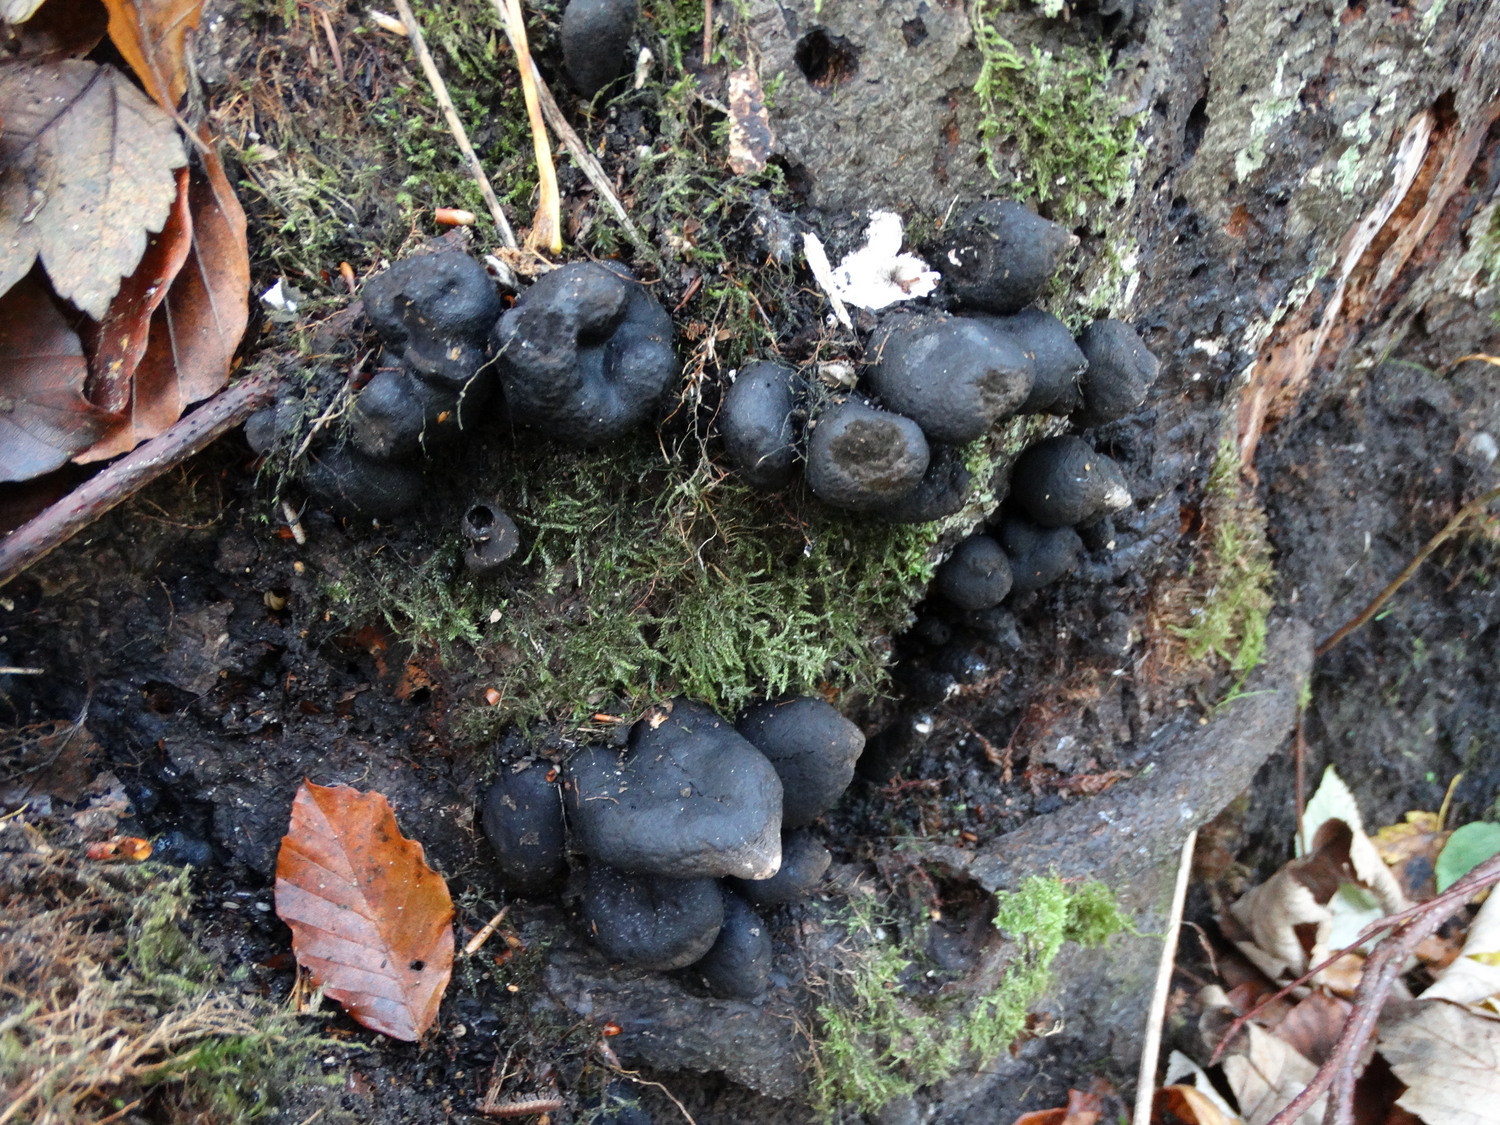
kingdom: Fungi
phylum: Ascomycota
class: Sordariomycetes
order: Xylariales
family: Xylariaceae
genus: Xylaria
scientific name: Xylaria polymorpha
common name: kølle-stødsvamp
